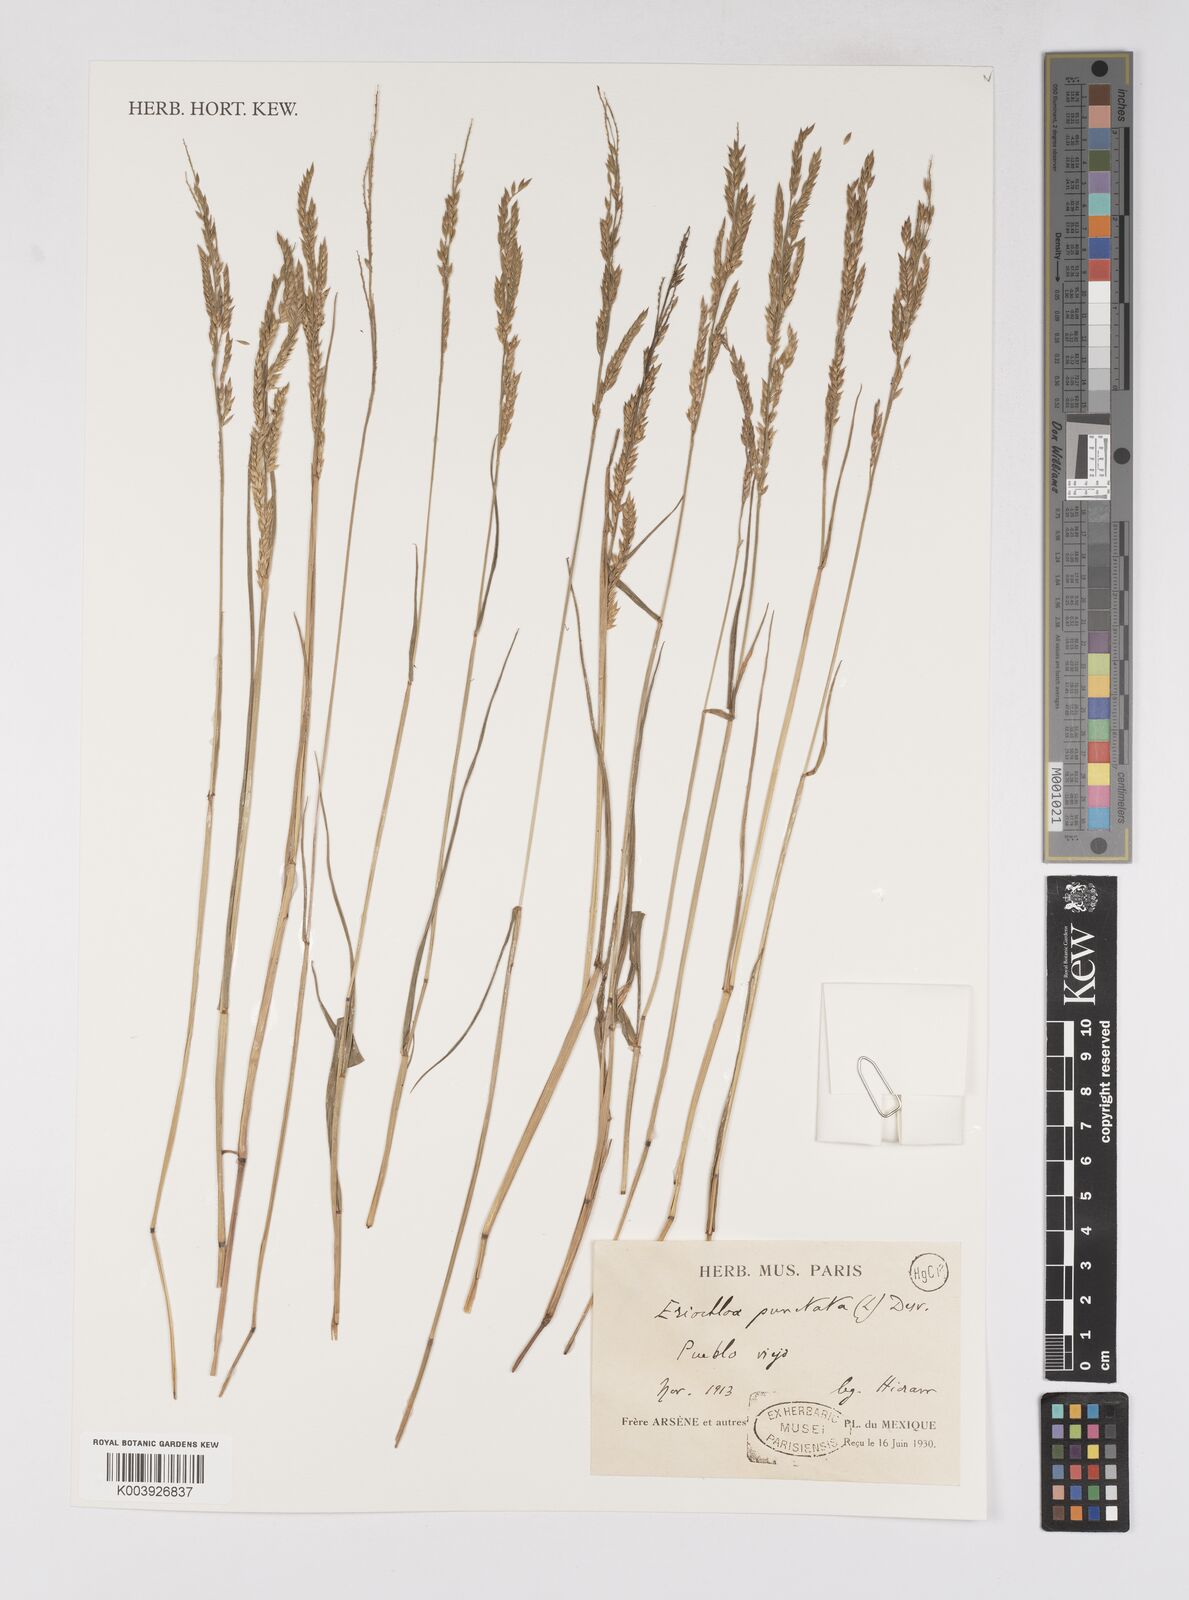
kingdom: Plantae
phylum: Tracheophyta
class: Liliopsida
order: Poales
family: Poaceae
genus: Eriochloa
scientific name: Eriochloa punctata
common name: Louisiana cupgrass
